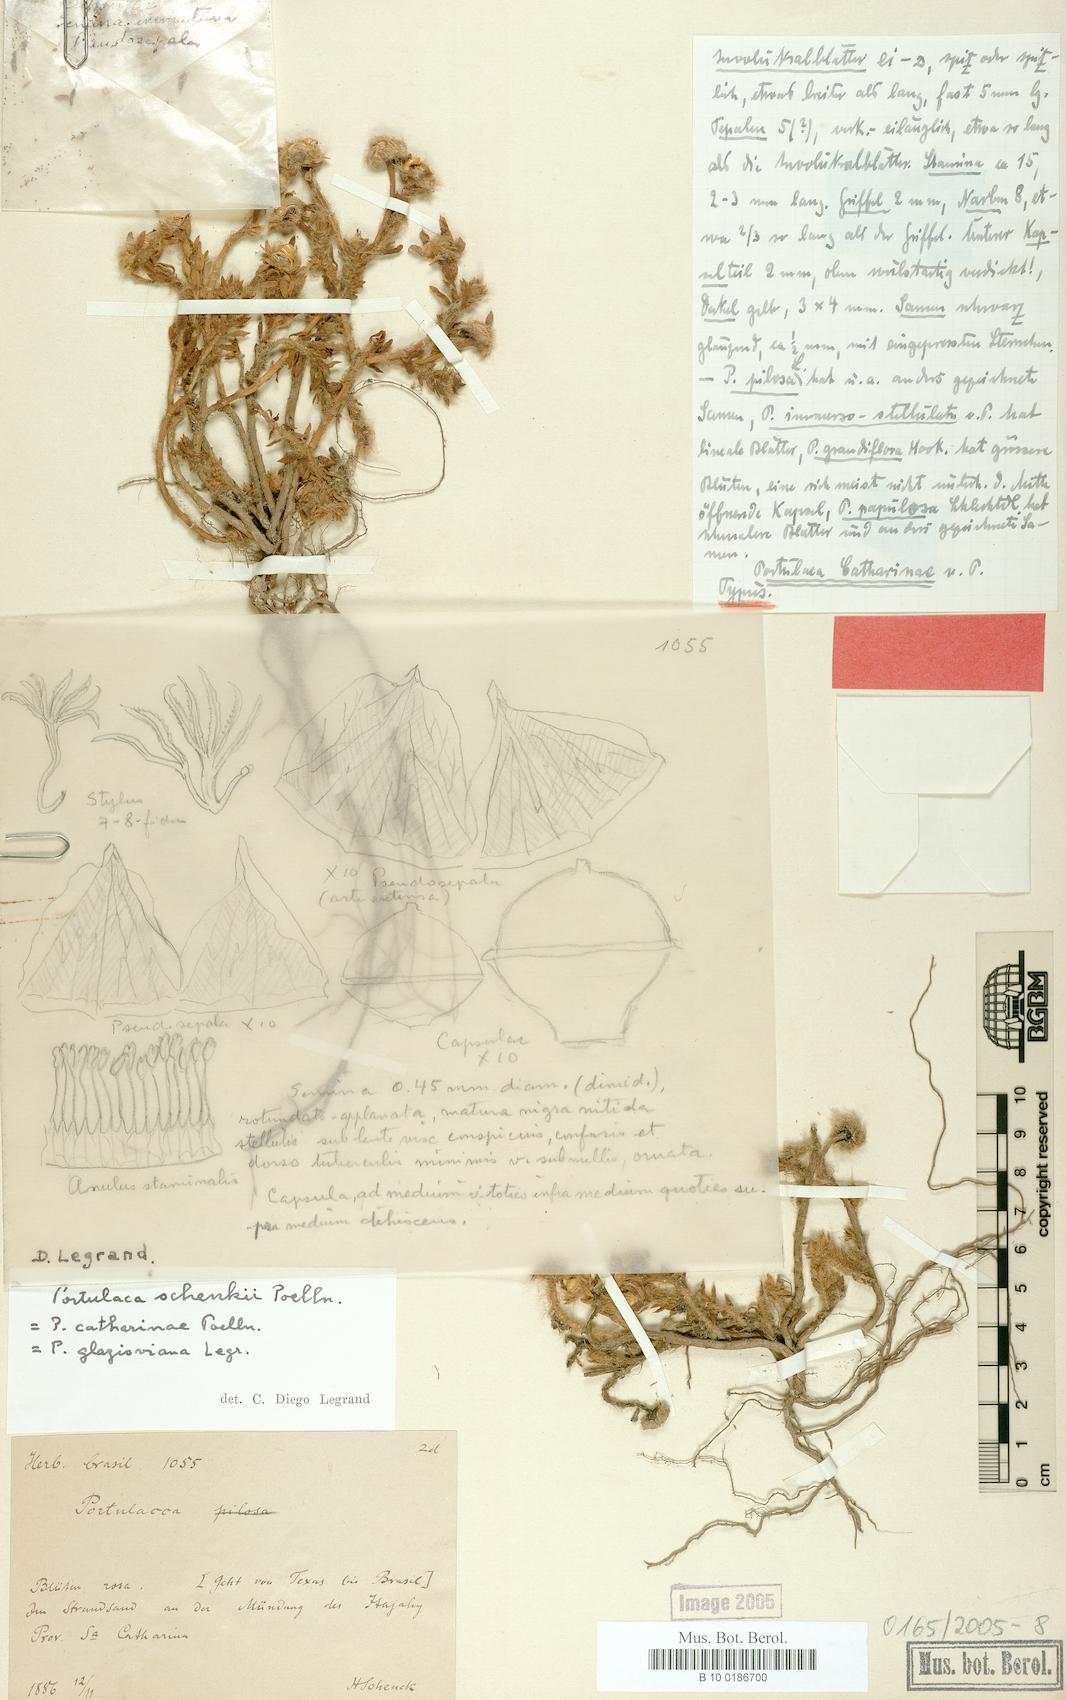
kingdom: Plantae
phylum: Tracheophyta
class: Magnoliopsida
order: Caryophyllales
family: Portulacaceae
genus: Portulaca
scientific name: Portulaca amilis
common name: Paraguayan purslane
